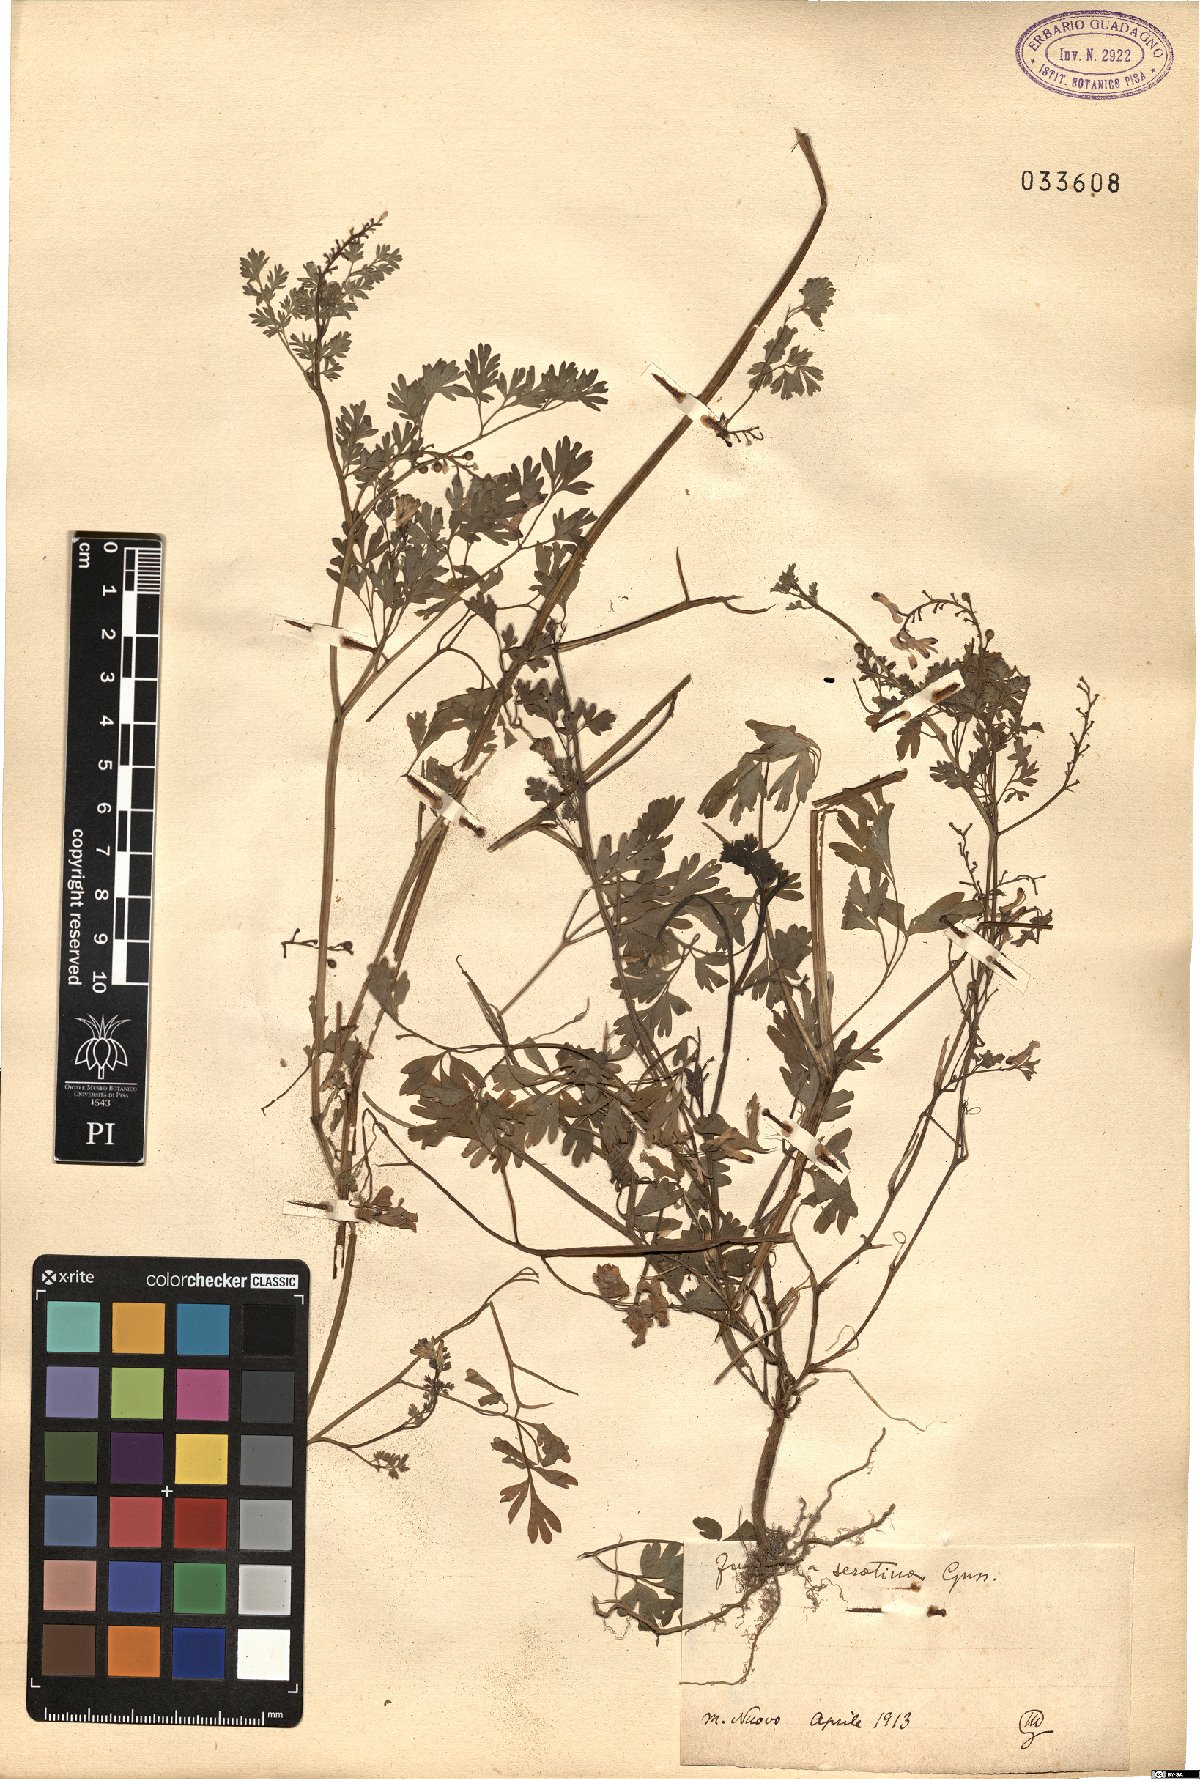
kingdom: Plantae
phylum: Tracheophyta
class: Magnoliopsida
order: Ranunculales
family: Papaveraceae
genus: Fumaria
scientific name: Fumaria bastardii
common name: Tall ramping-fumitory
